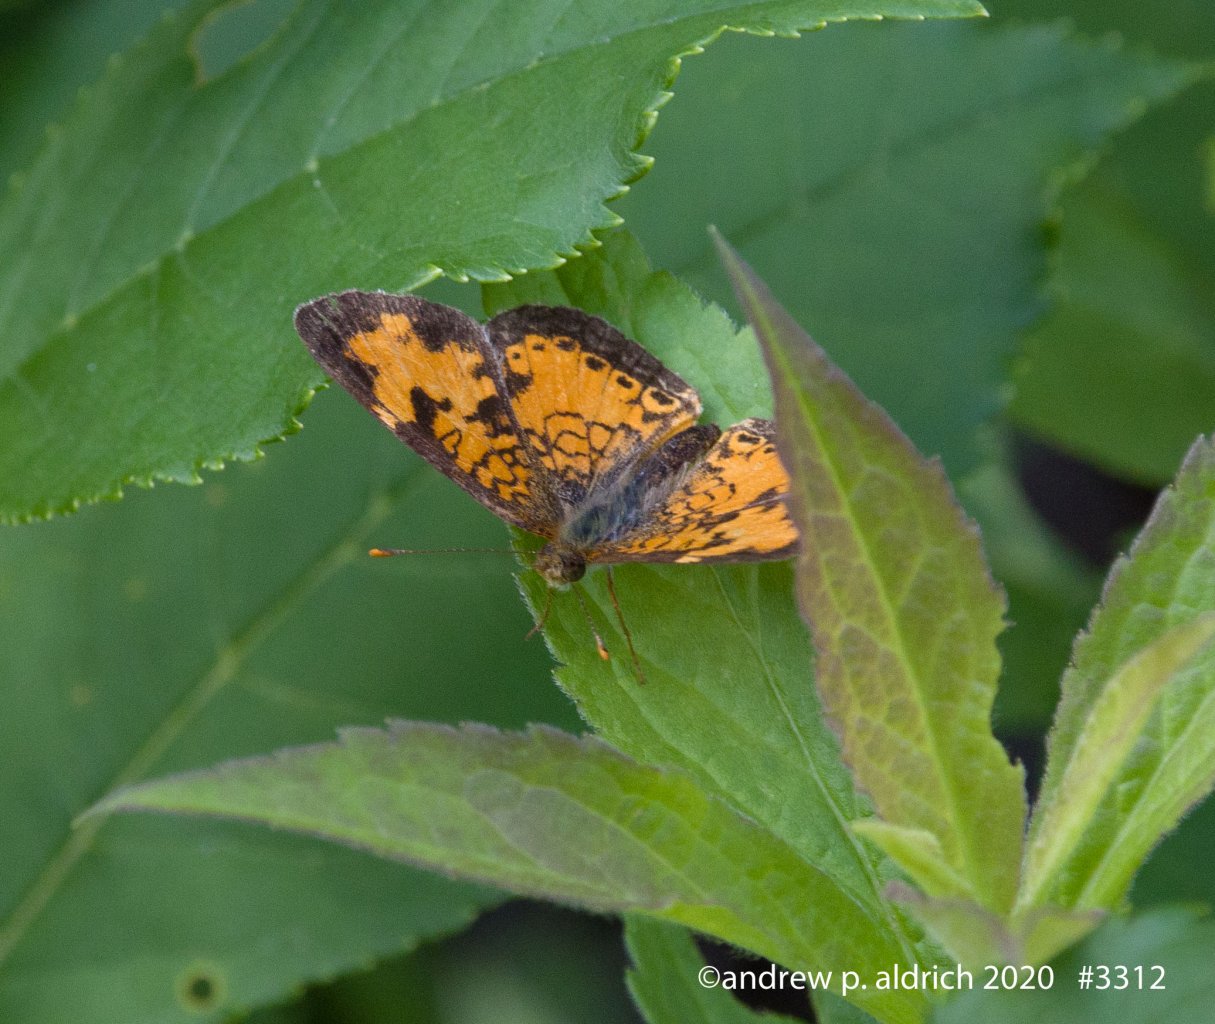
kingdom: Animalia
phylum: Arthropoda
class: Insecta
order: Lepidoptera
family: Nymphalidae
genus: Phyciodes
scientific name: Phyciodes
